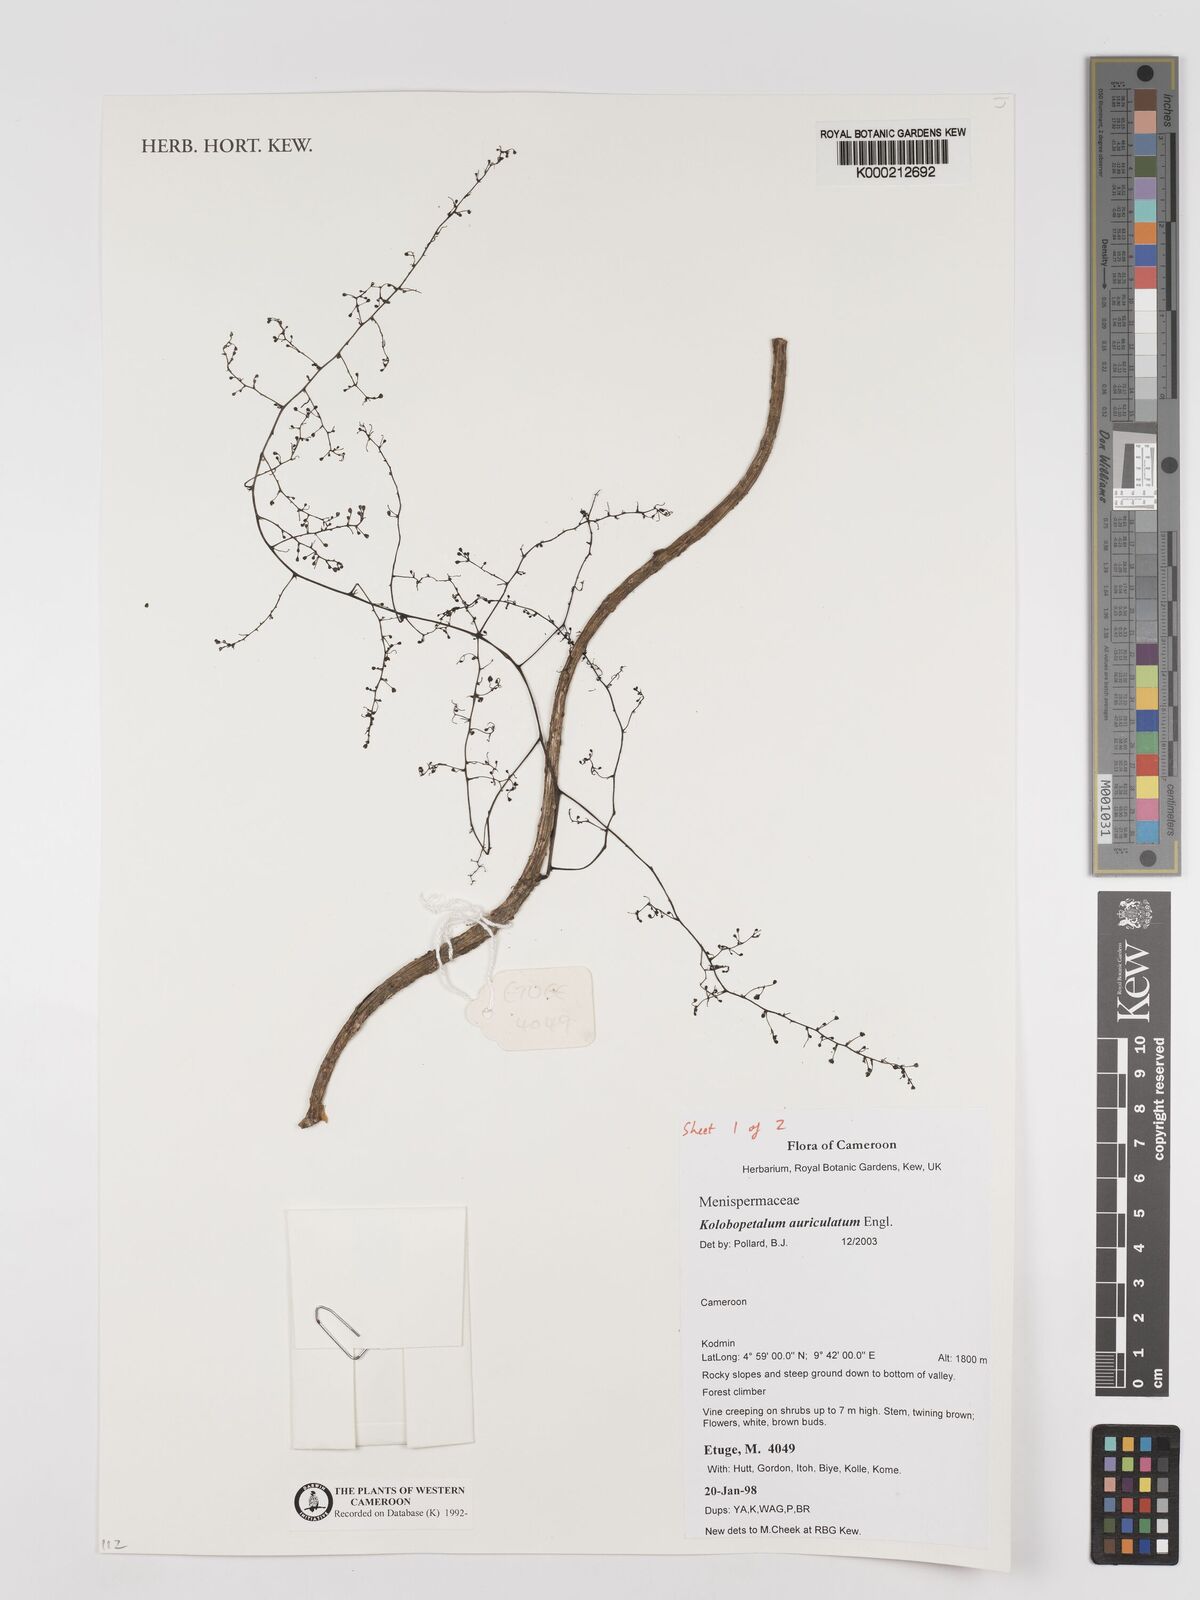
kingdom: Plantae
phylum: Tracheophyta
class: Magnoliopsida
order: Ranunculales
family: Menispermaceae
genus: Kolobopetalum
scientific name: Kolobopetalum auriculatum
